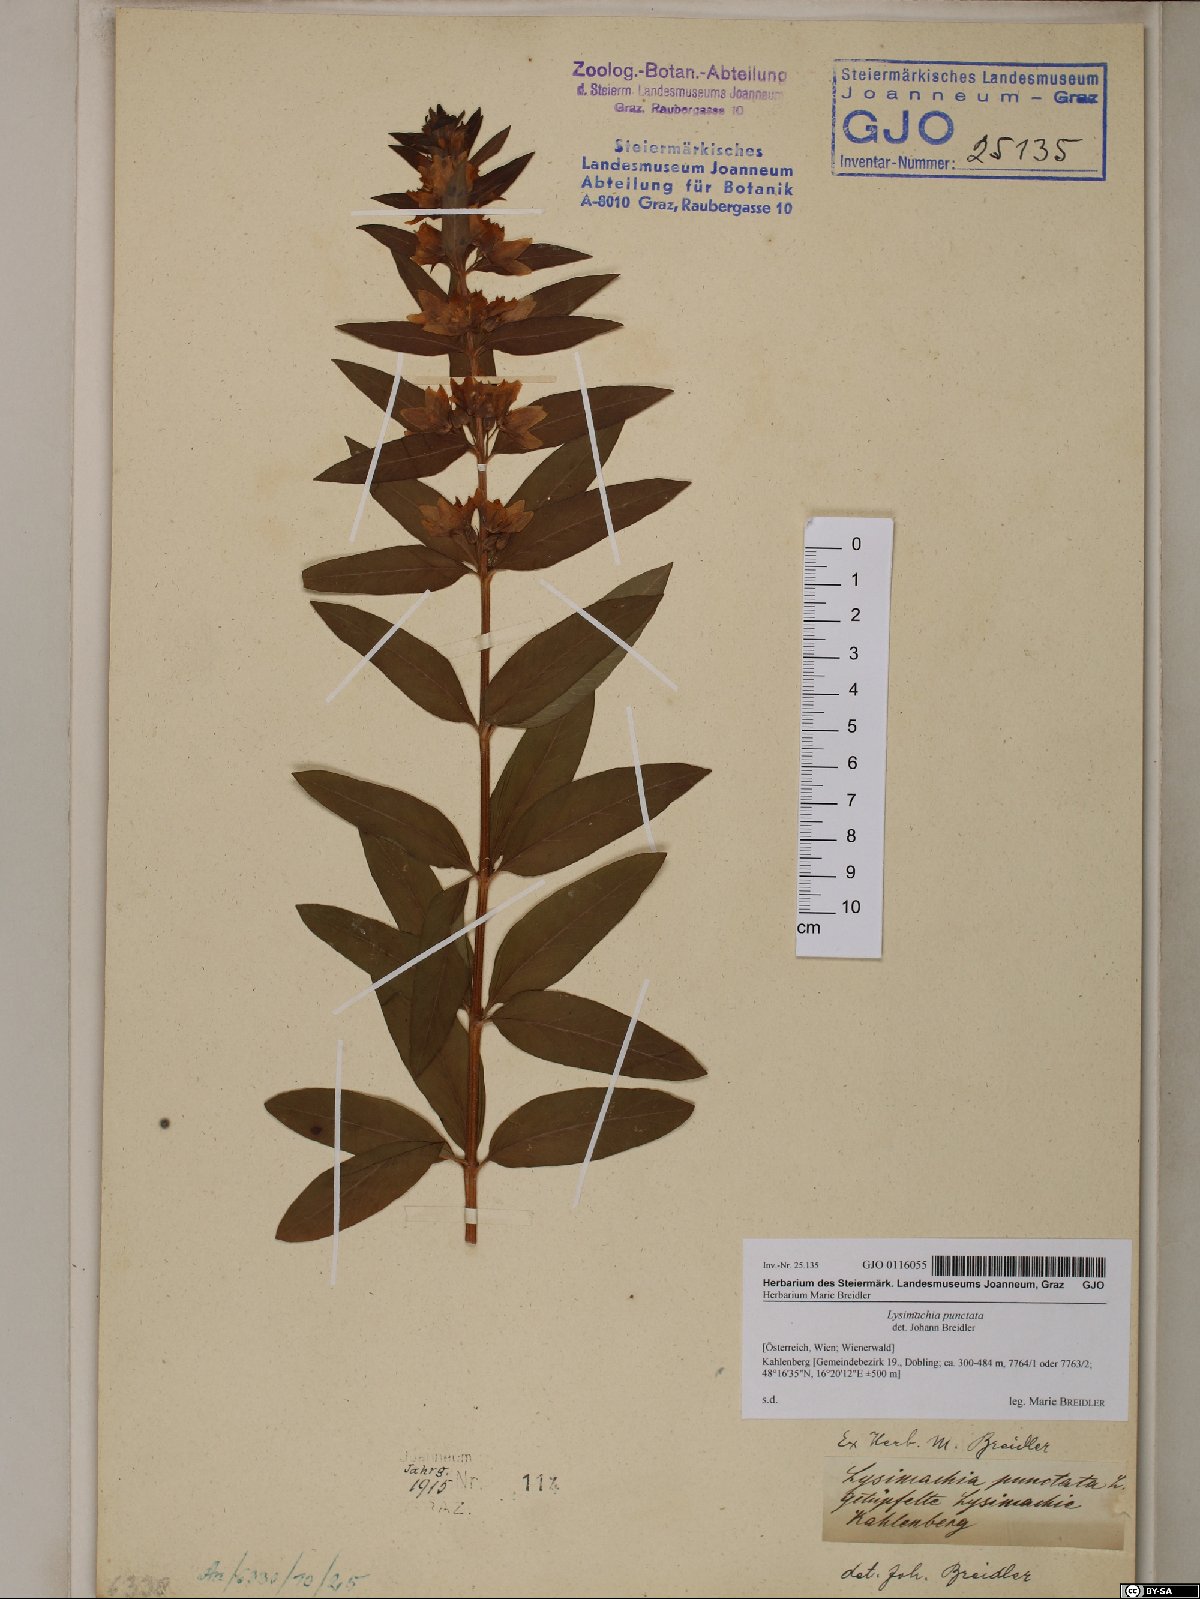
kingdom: Plantae
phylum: Tracheophyta
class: Magnoliopsida
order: Ericales
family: Primulaceae
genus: Lysimachia
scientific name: Lysimachia punctata
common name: Dotted loosestrife
